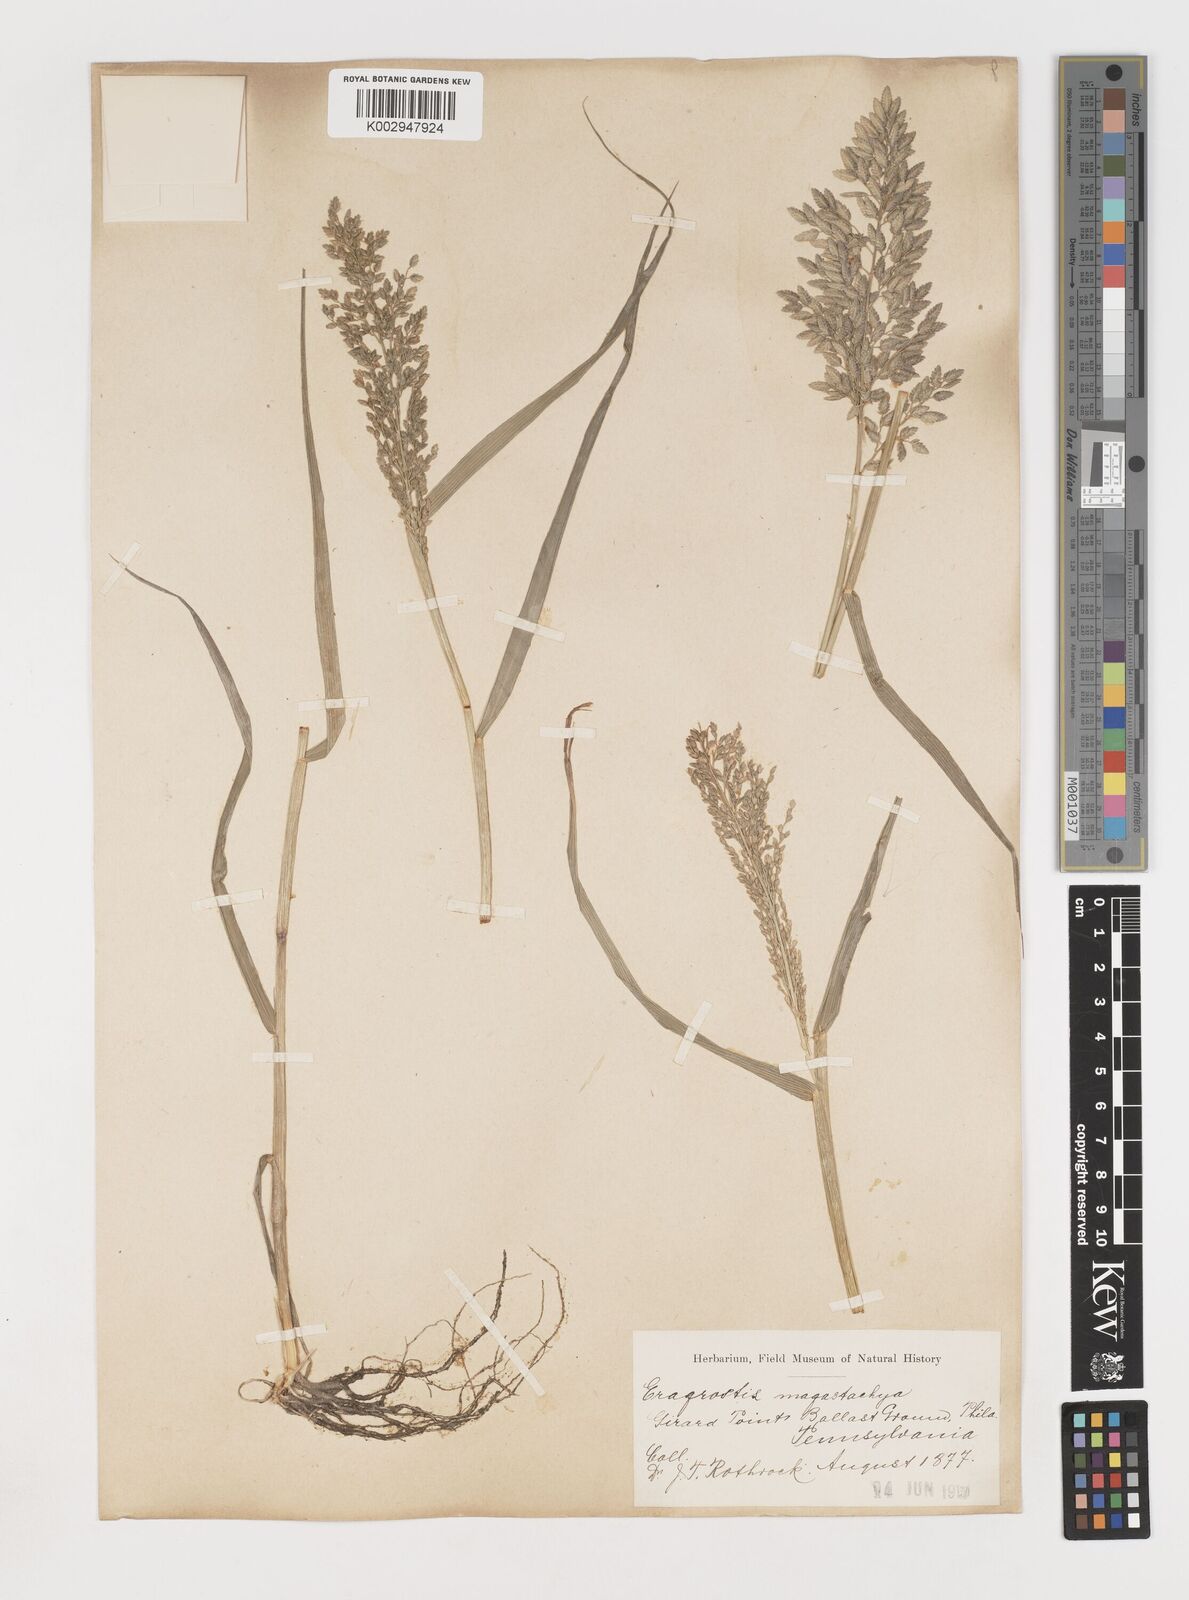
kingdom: Plantae
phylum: Tracheophyta
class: Liliopsida
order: Poales
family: Poaceae
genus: Eragrostis
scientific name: Eragrostis
